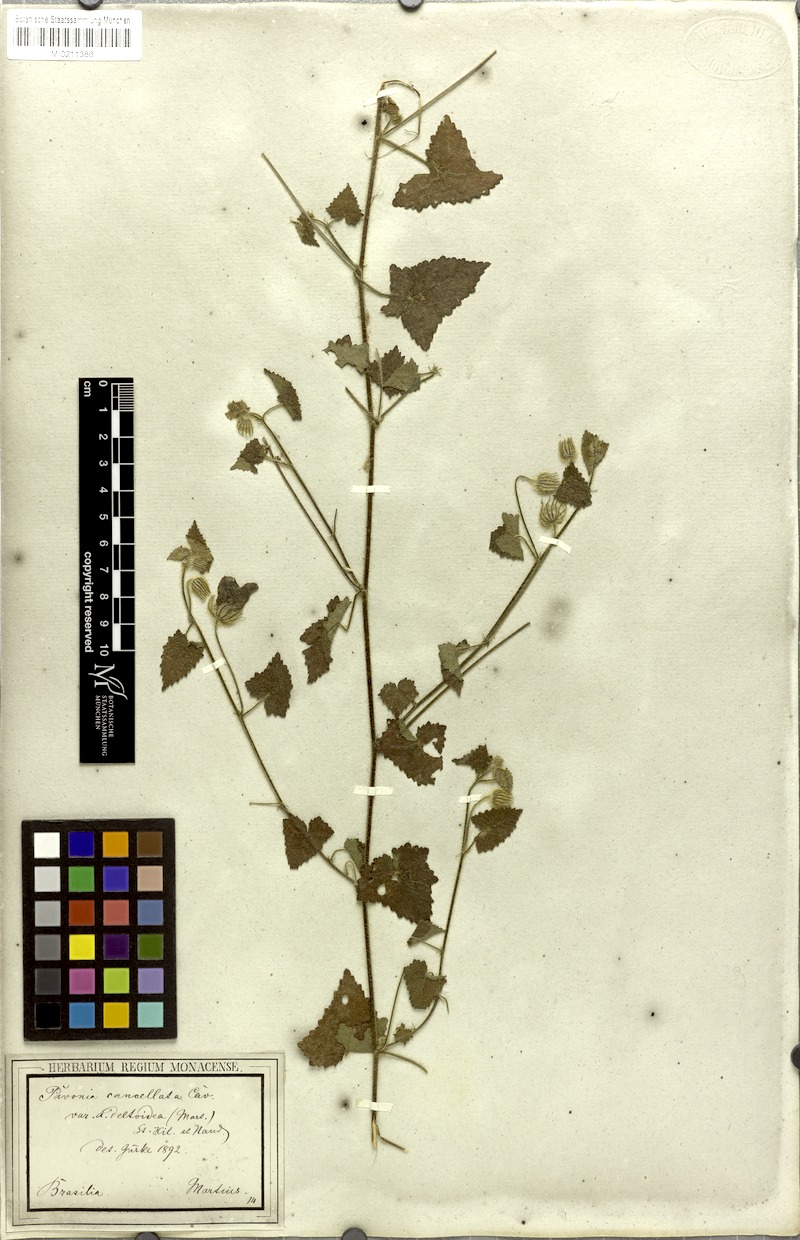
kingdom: Plantae
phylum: Tracheophyta
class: Magnoliopsida
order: Malvales
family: Malvaceae
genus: Pavonia
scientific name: Pavonia cancellata
